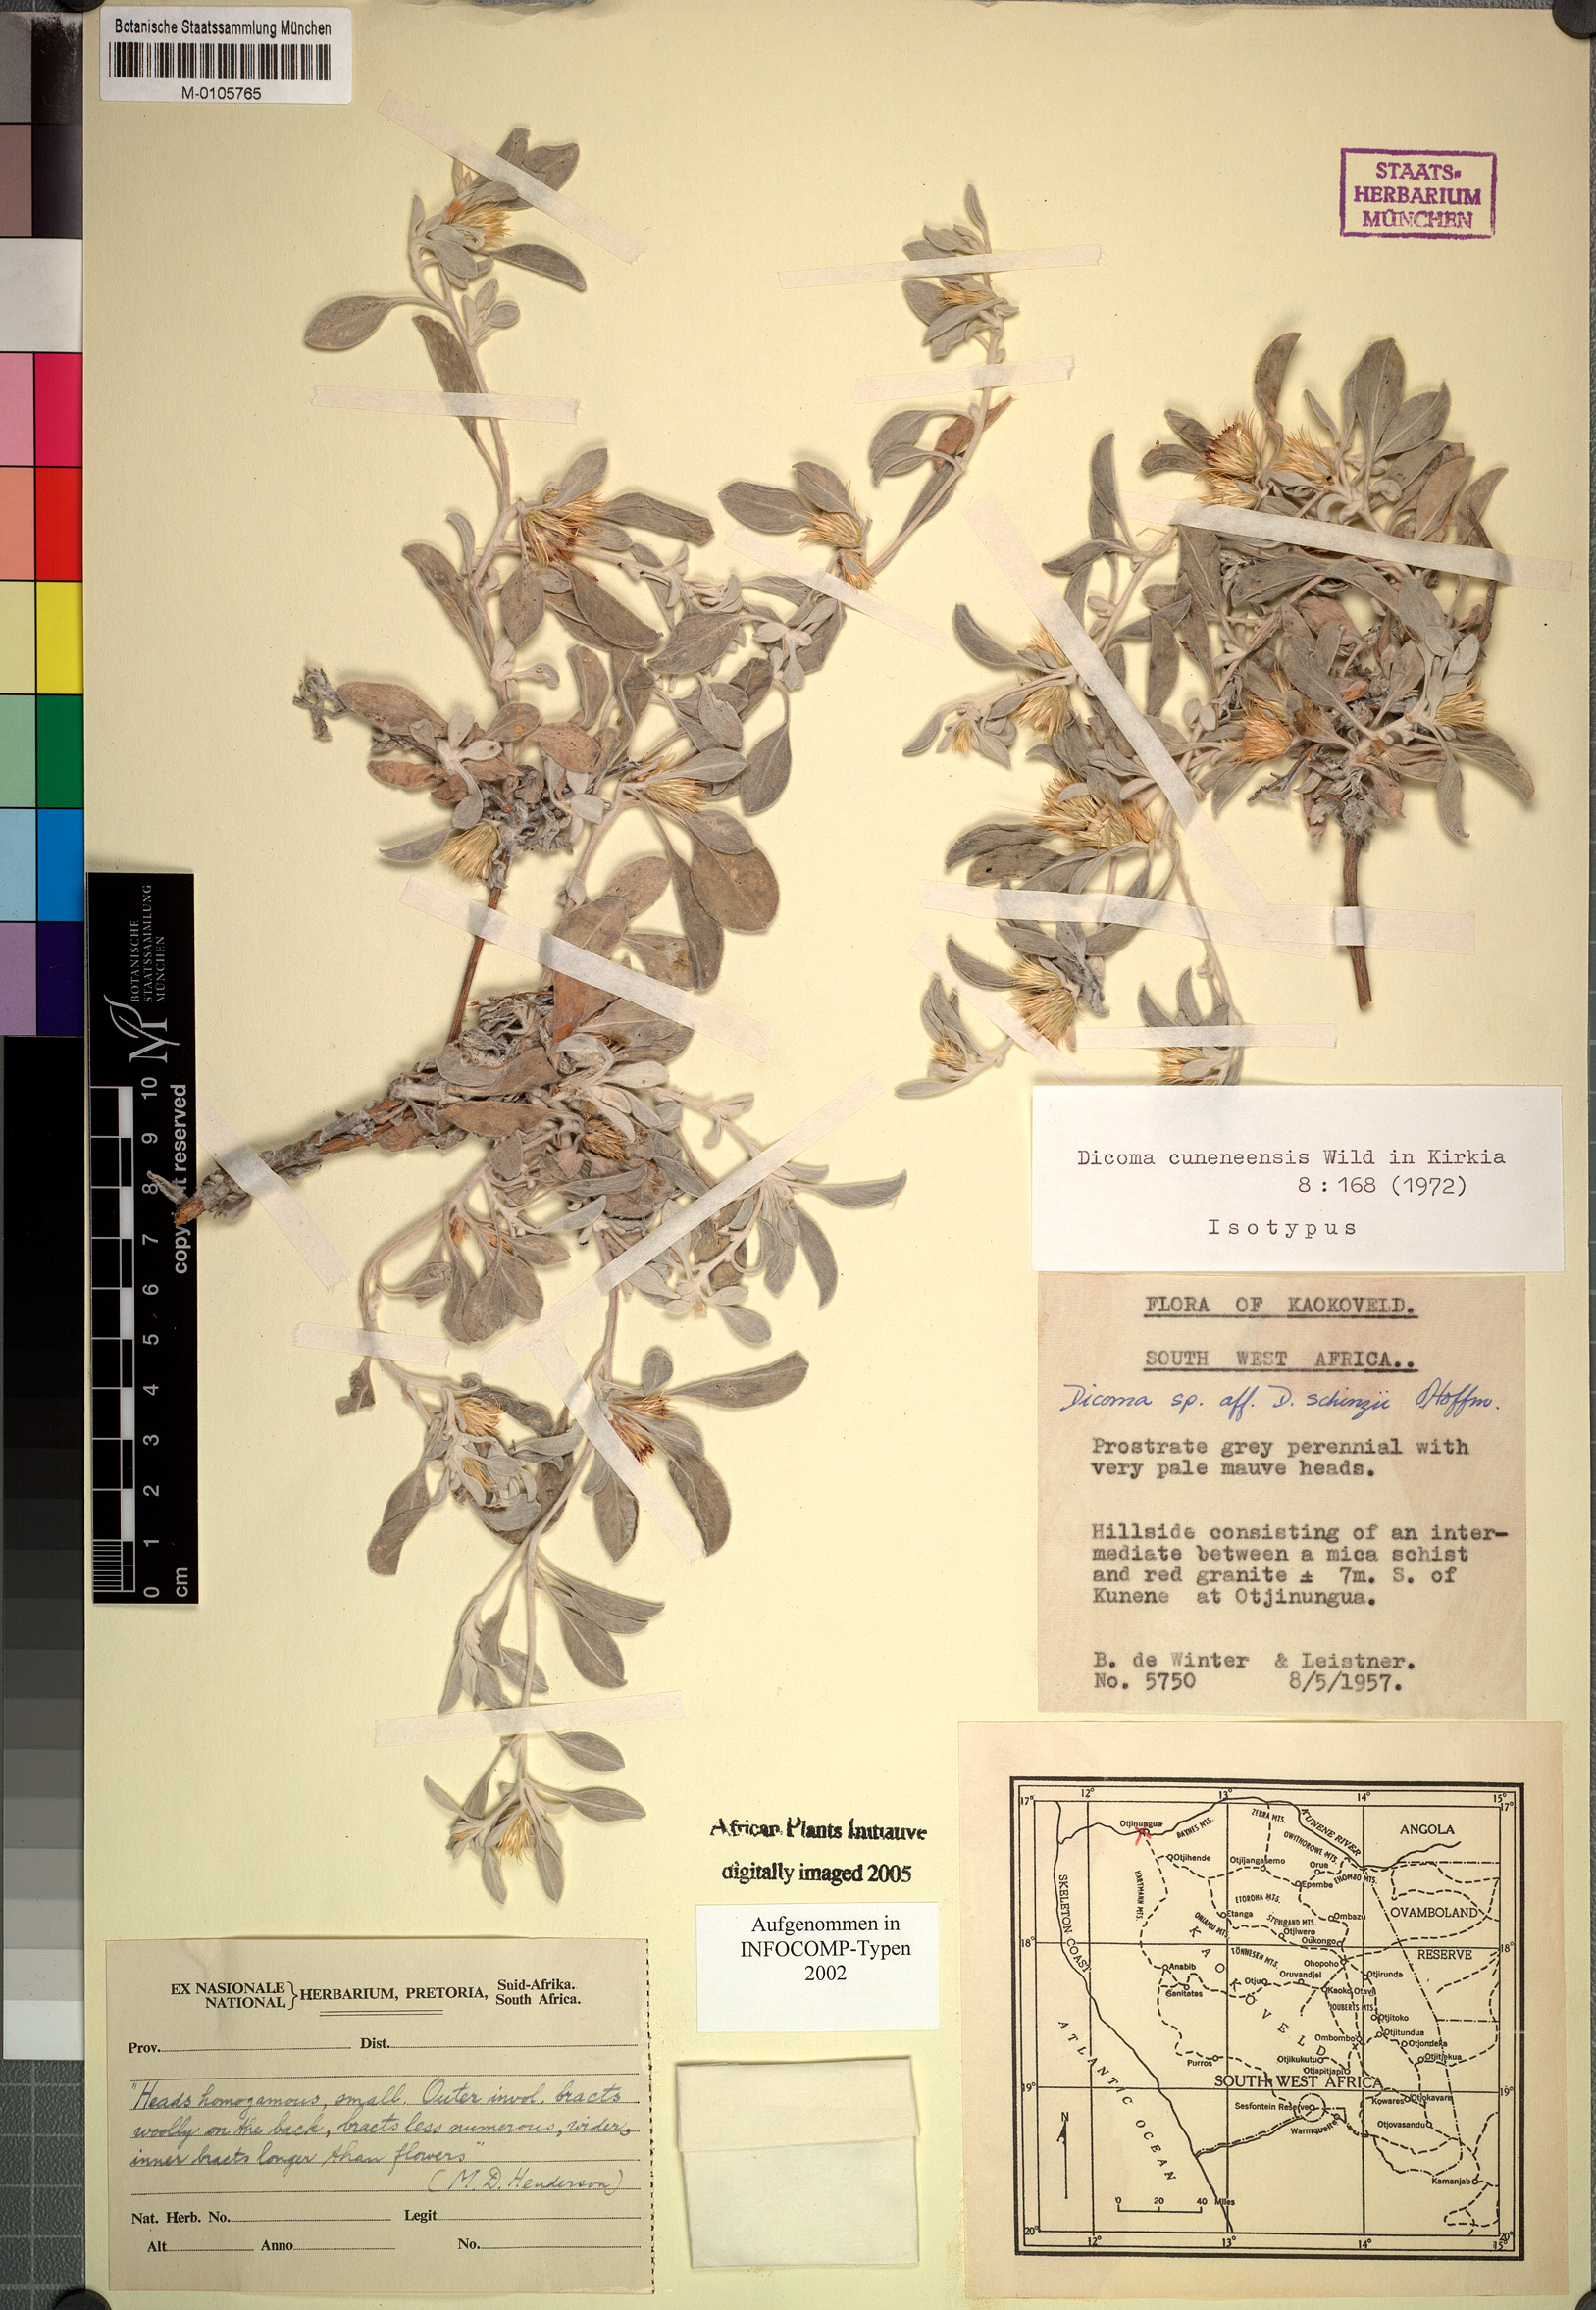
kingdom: Plantae
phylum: Tracheophyta
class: Magnoliopsida
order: Asterales
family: Asteraceae
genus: Dicoma
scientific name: Dicoma cuneneensis
